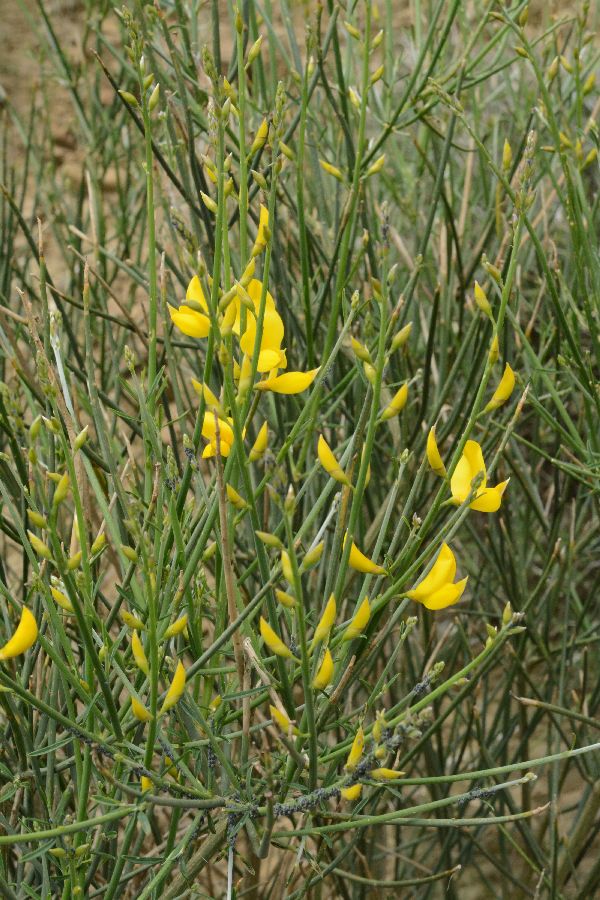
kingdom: Plantae
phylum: Tracheophyta
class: Magnoliopsida
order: Fabales
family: Fabaceae
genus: Spartium
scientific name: Spartium junceum
